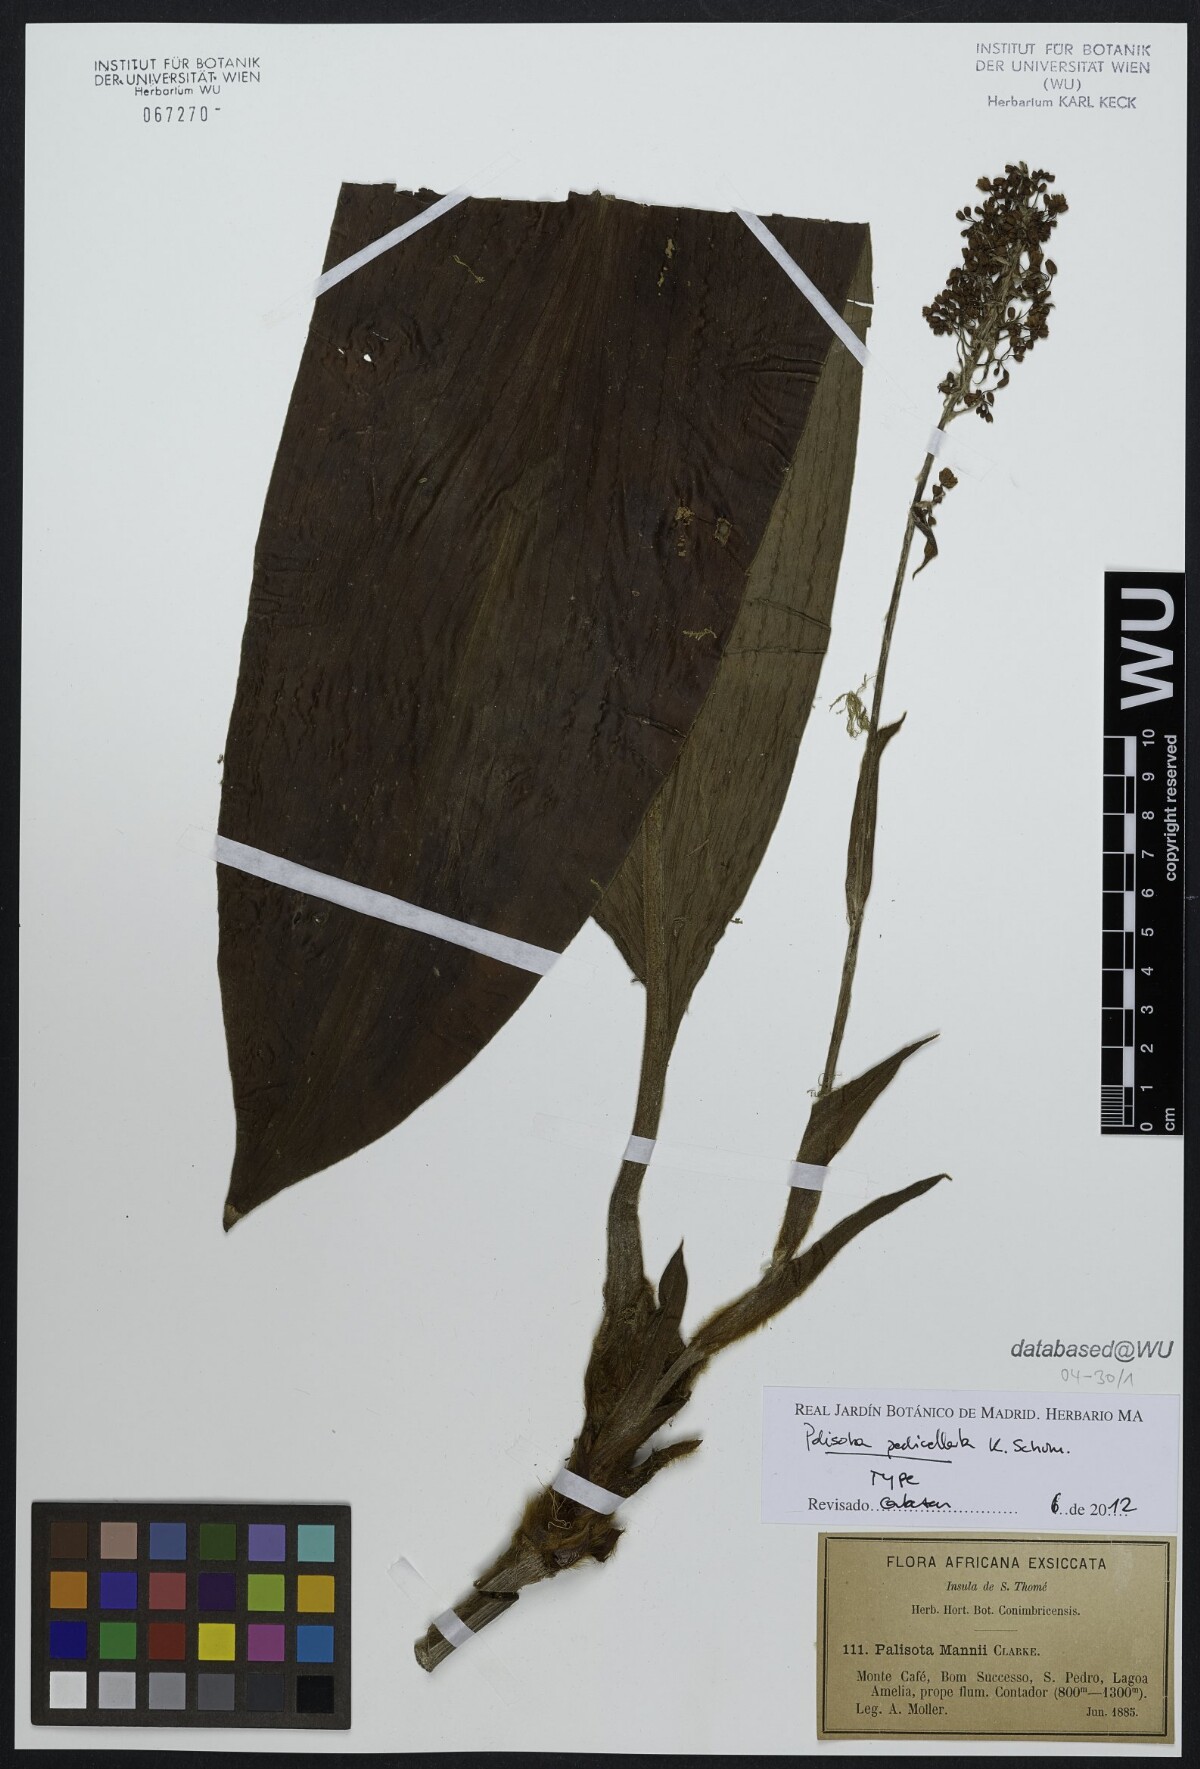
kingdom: Plantae
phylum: Tracheophyta
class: Liliopsida
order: Commelinales
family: Commelinaceae
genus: Palisota
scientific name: Palisota pedicellata
